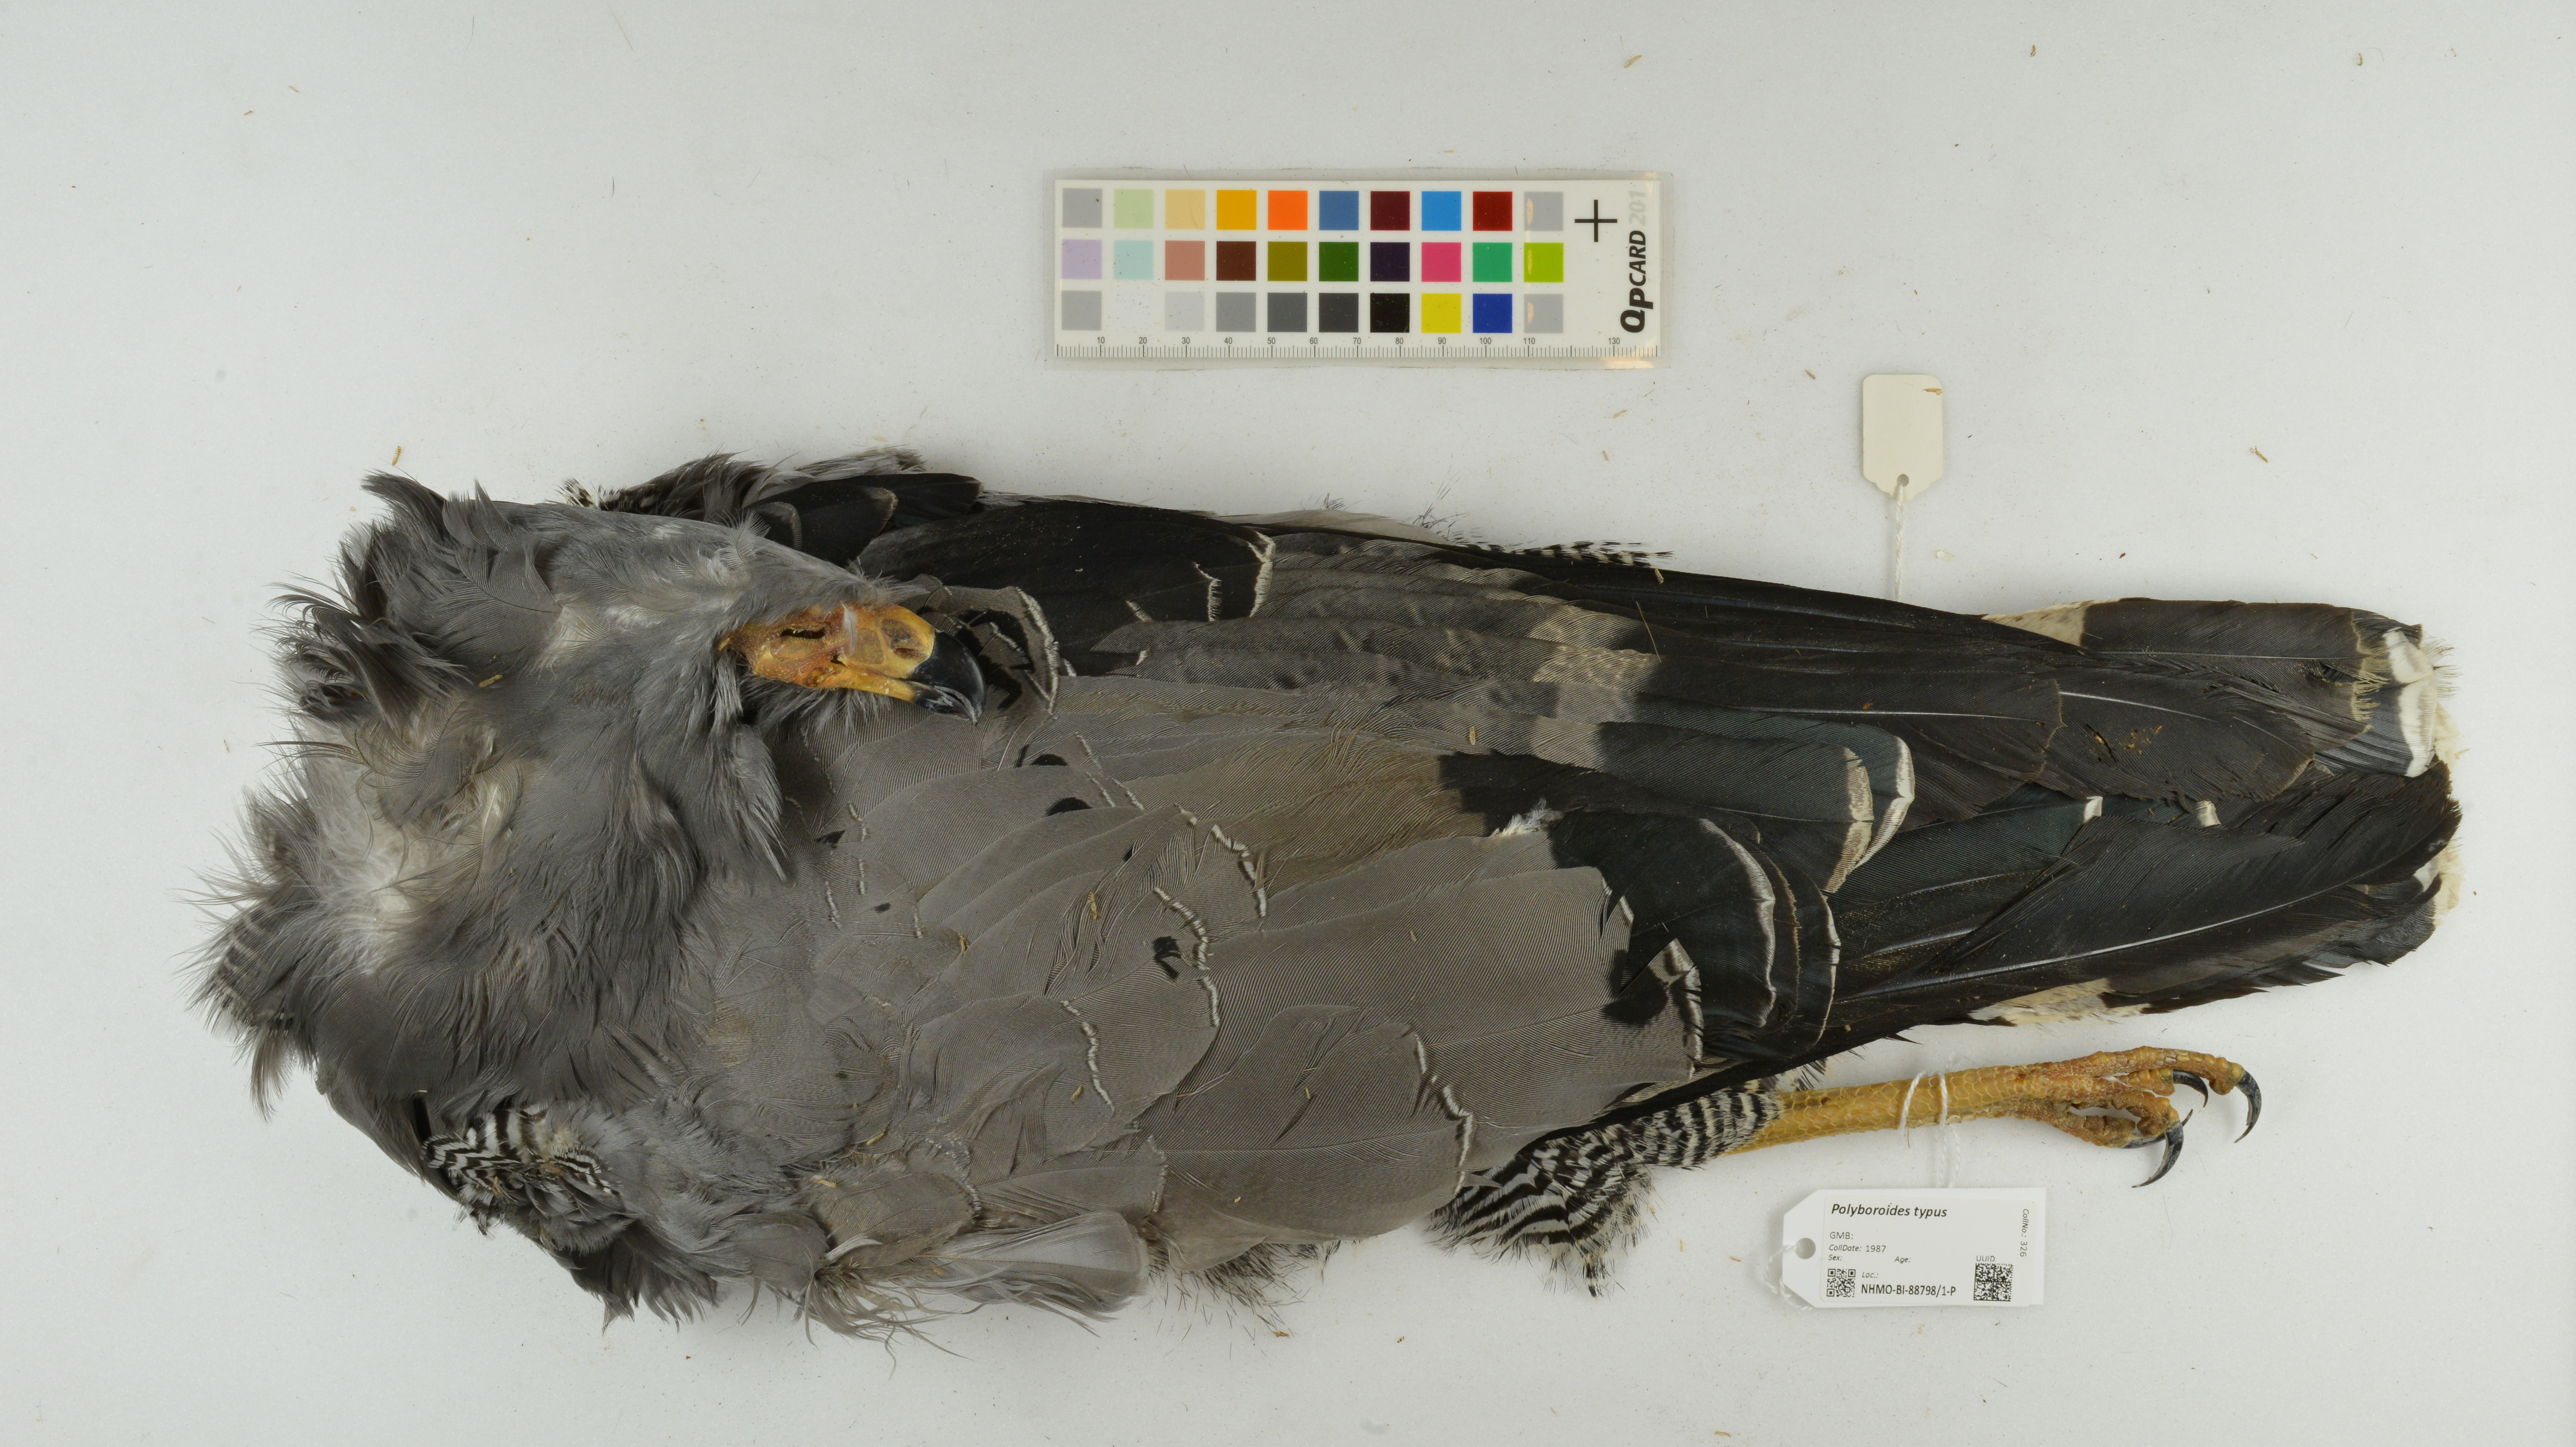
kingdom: Animalia
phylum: Chordata
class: Aves
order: Accipitriformes
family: Accipitridae
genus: Polyboroides
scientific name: Polyboroides typus
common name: African harrier-hawk
